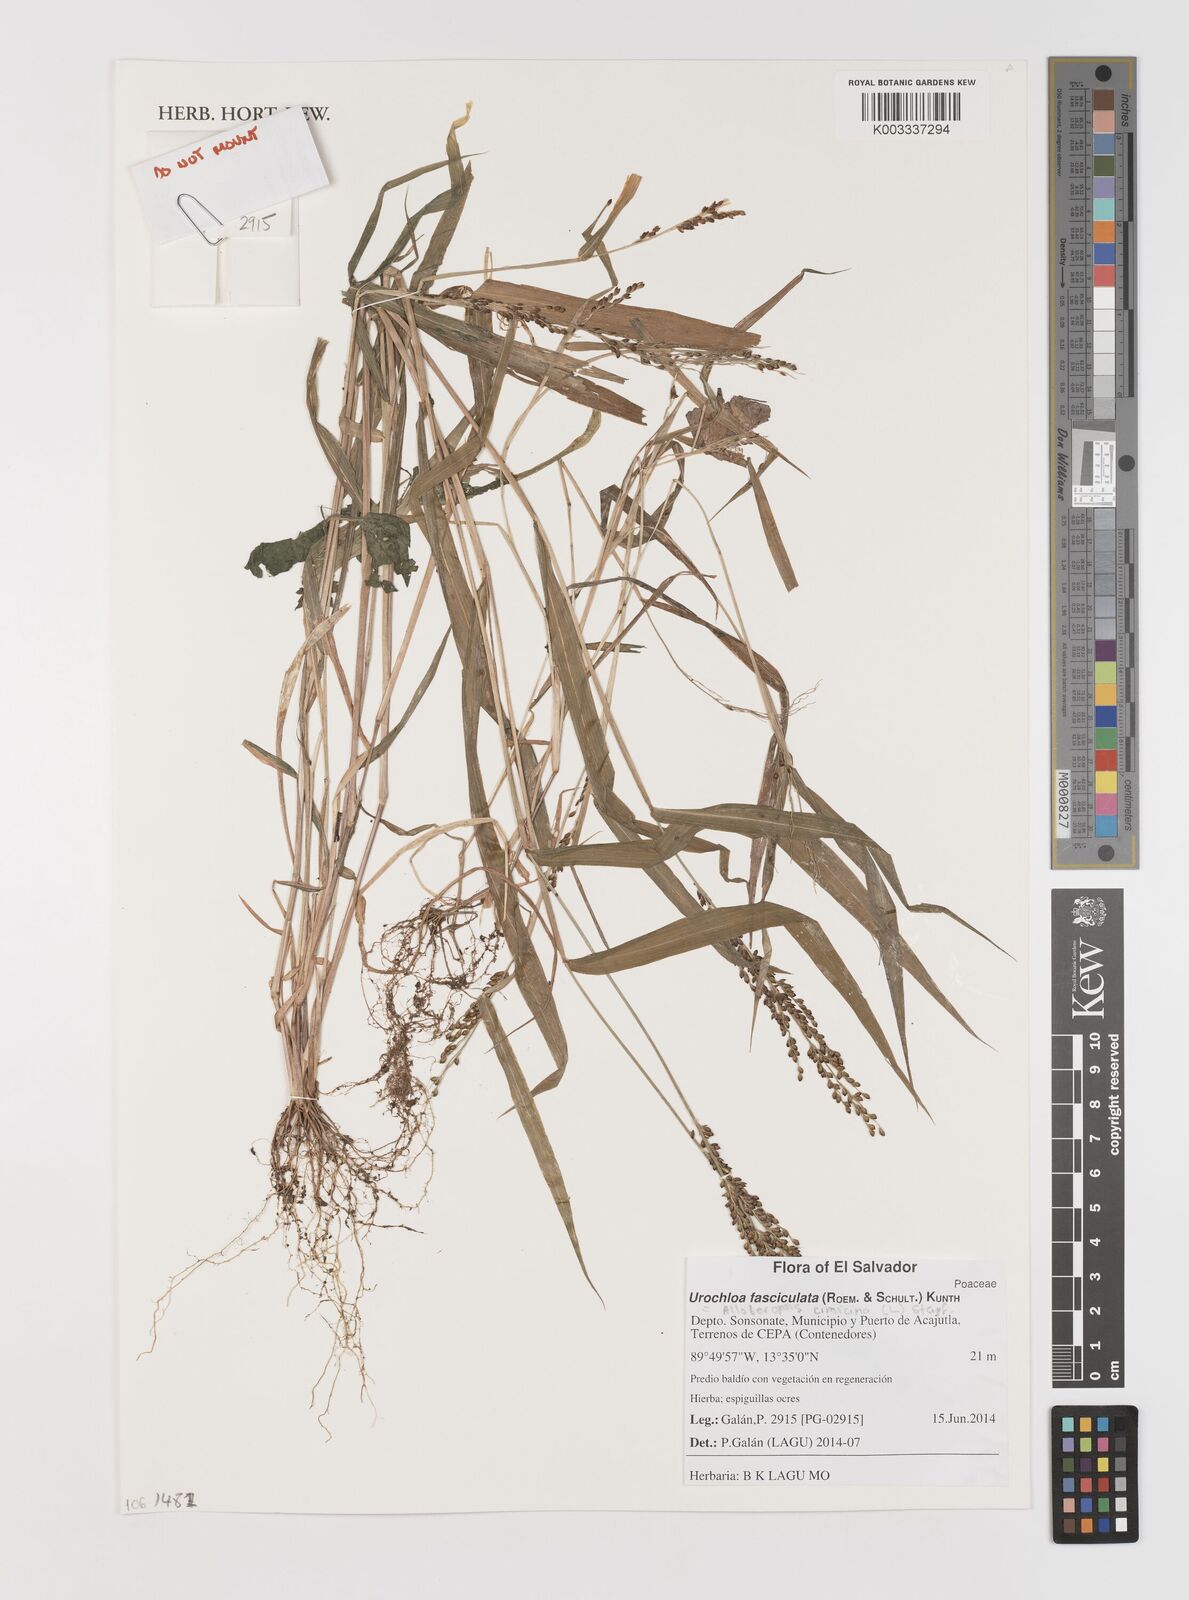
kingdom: Plantae
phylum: Tracheophyta
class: Liliopsida
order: Poales
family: Poaceae
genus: Alloteropsis
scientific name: Alloteropsis cimicina
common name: Summergrass
